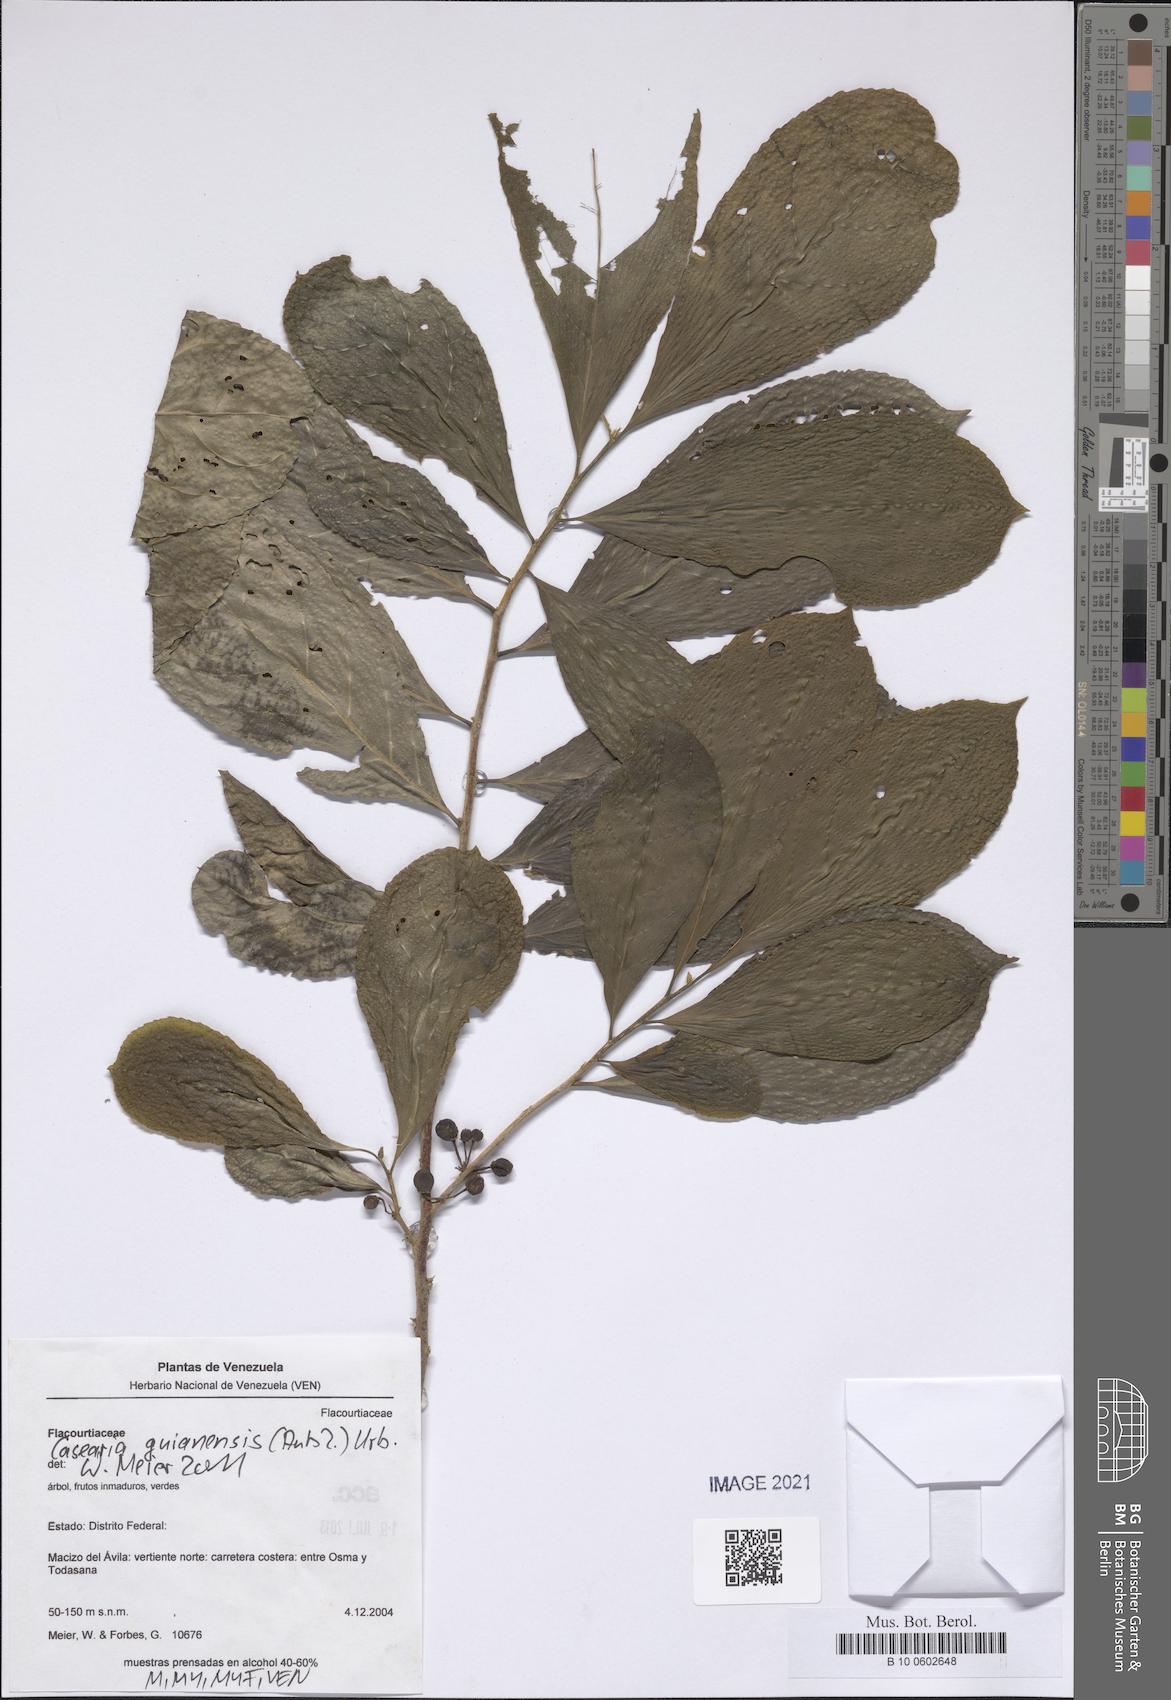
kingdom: Plantae
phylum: Tracheophyta
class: Magnoliopsida
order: Malpighiales
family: Salicaceae
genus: Casearia
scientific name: Casearia guianensis
